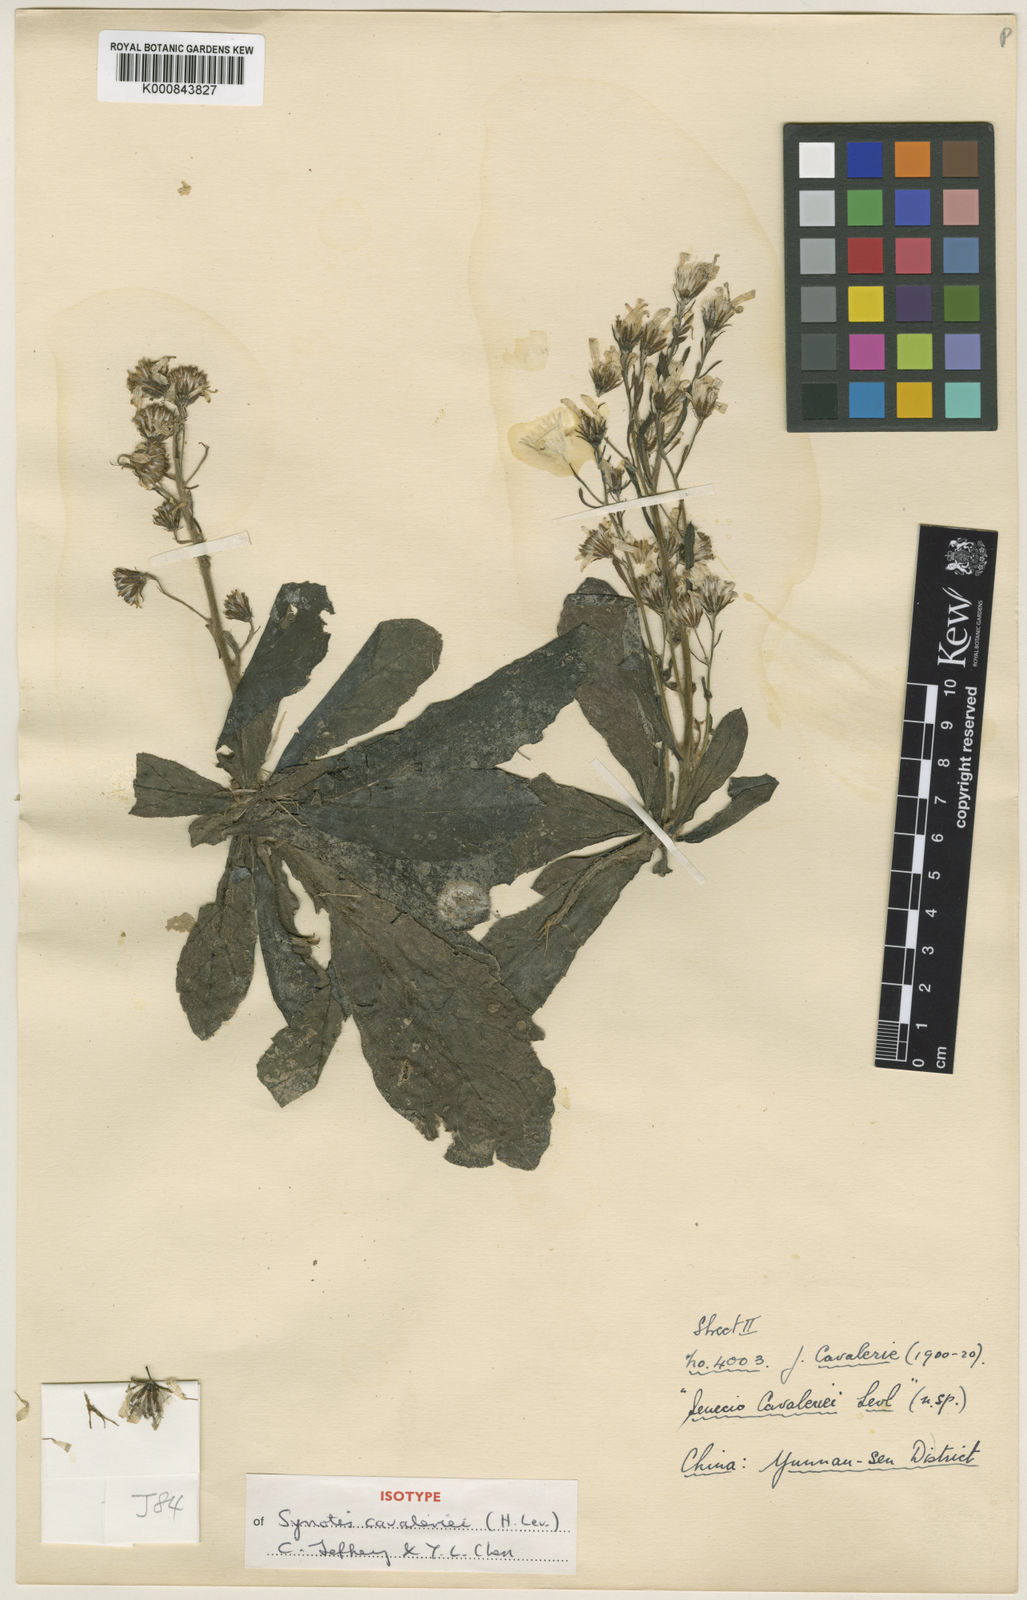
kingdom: Plantae
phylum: Tracheophyta
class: Magnoliopsida
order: Asterales
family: Asteraceae
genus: Synotis
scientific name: Synotis
